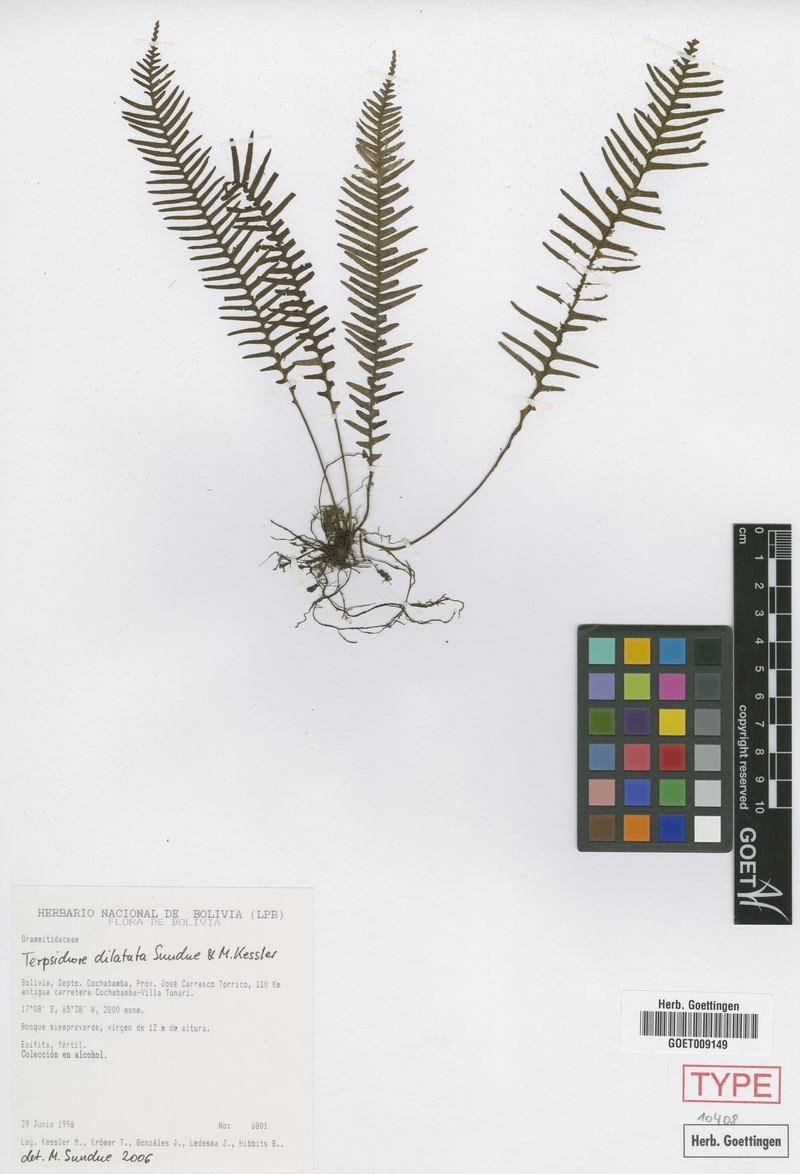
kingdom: Plantae
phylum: Tracheophyta
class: Polypodiopsida
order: Polypodiales
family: Polypodiaceae
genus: Ascogrammitis
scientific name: Ascogrammitis dilatata
